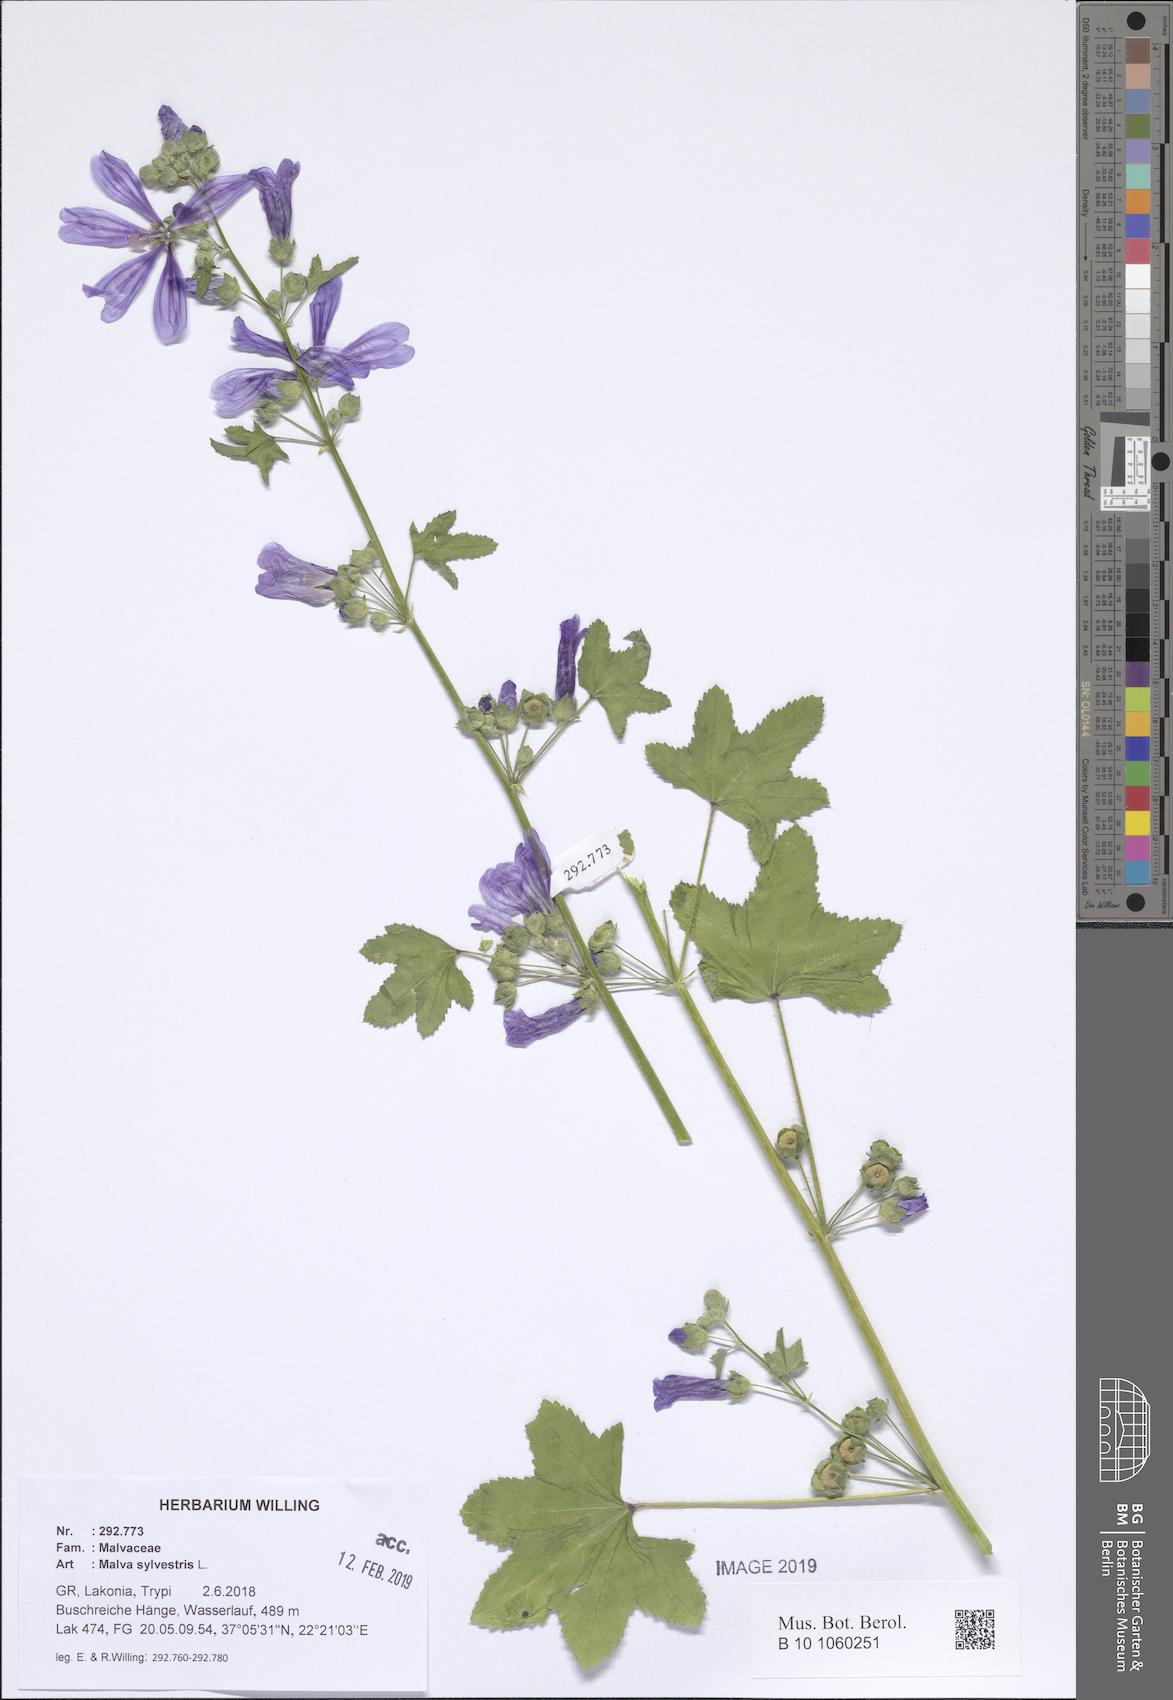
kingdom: Plantae
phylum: Tracheophyta
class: Magnoliopsida
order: Malvales
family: Malvaceae
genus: Malva
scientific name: Malva sylvestris
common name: Common mallow
